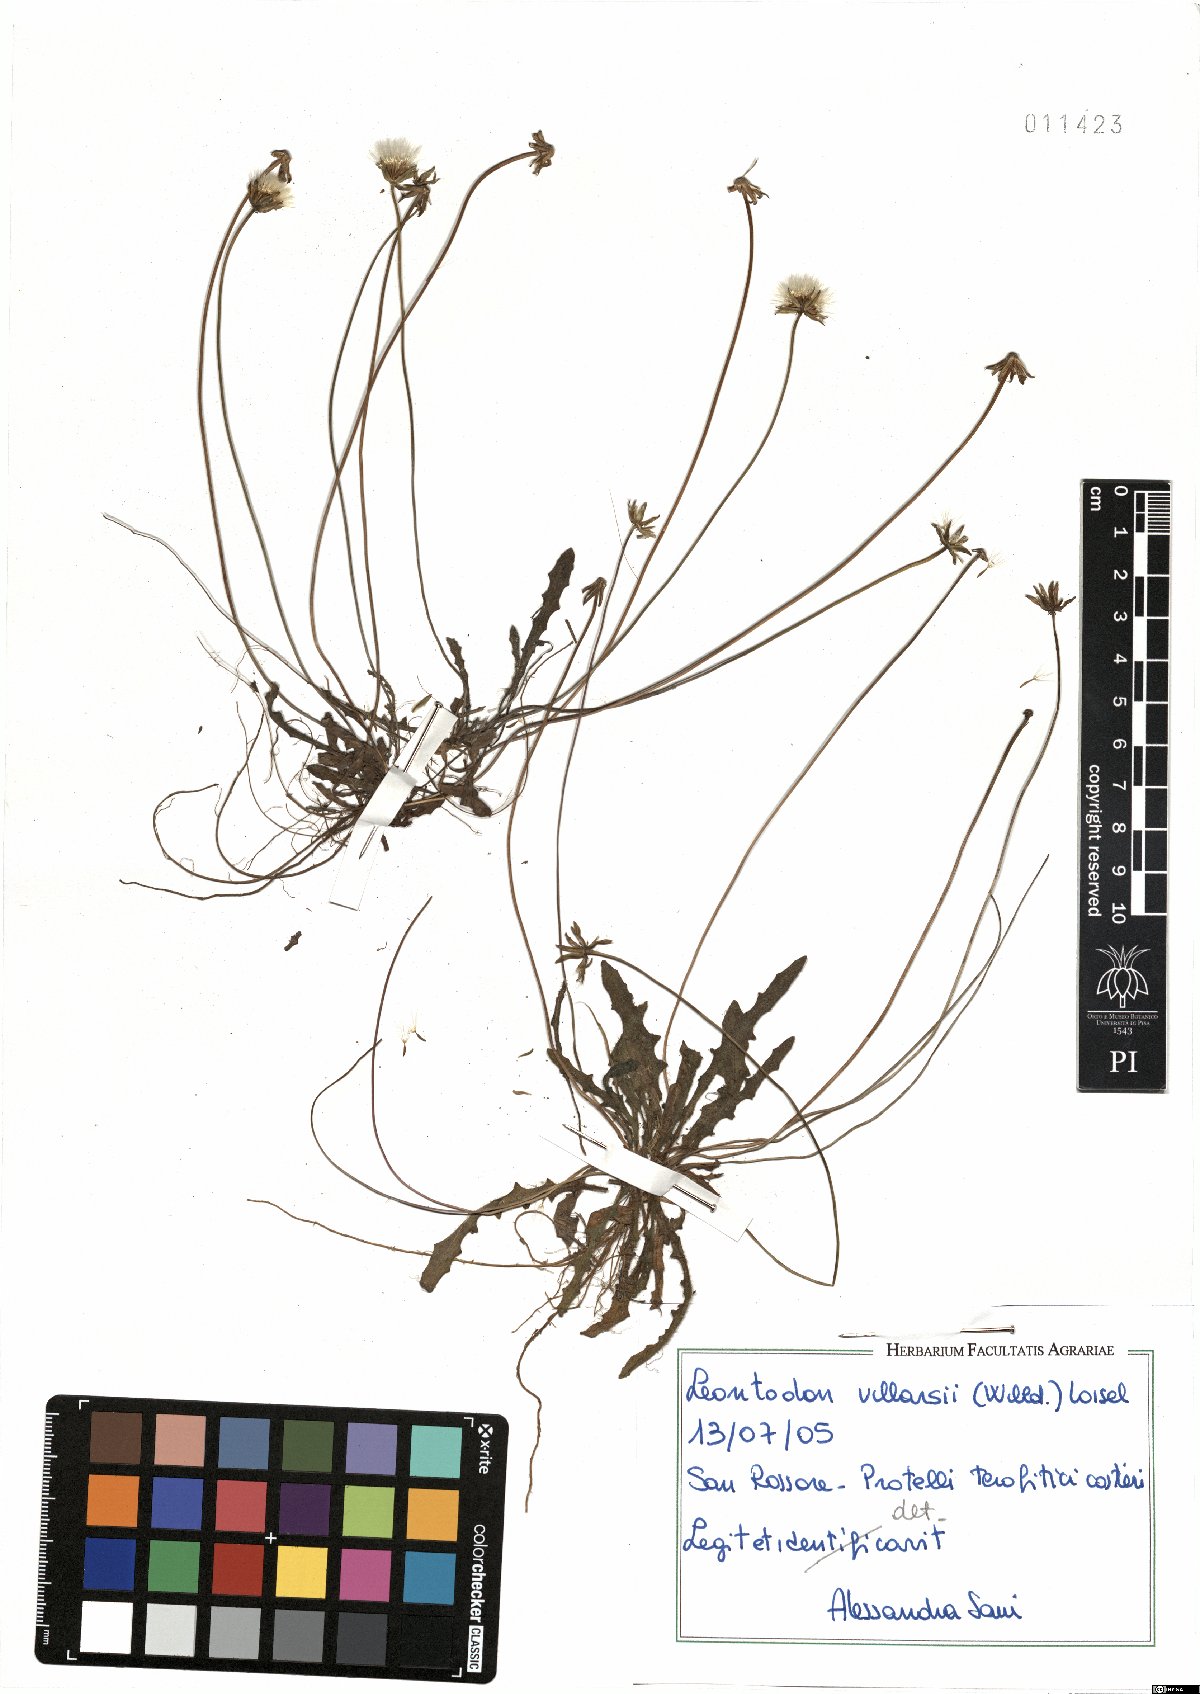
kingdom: Plantae
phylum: Tracheophyta
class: Magnoliopsida
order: Asterales
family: Asteraceae
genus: Leontodon
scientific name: Leontodon hirtus
